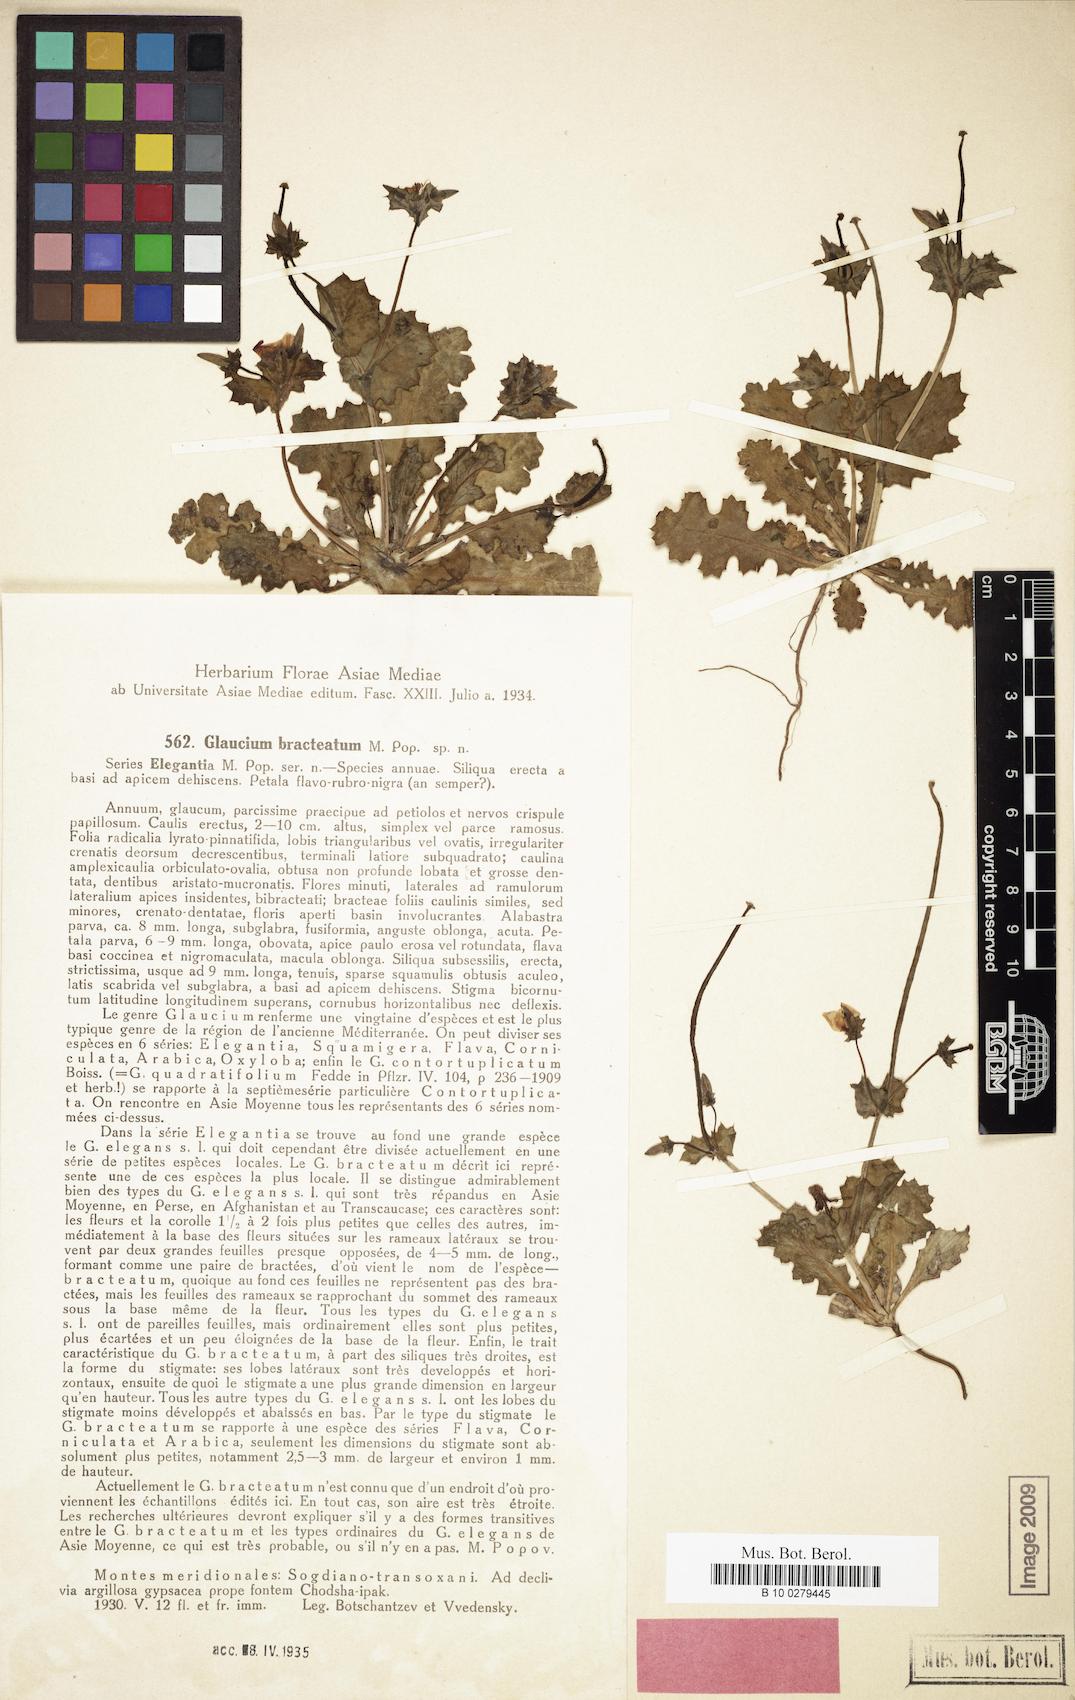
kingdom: Plantae
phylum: Tracheophyta
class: Magnoliopsida
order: Ranunculales
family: Papaveraceae
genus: Glaucium
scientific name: Glaucium elegans
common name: Annual horned-poppy
